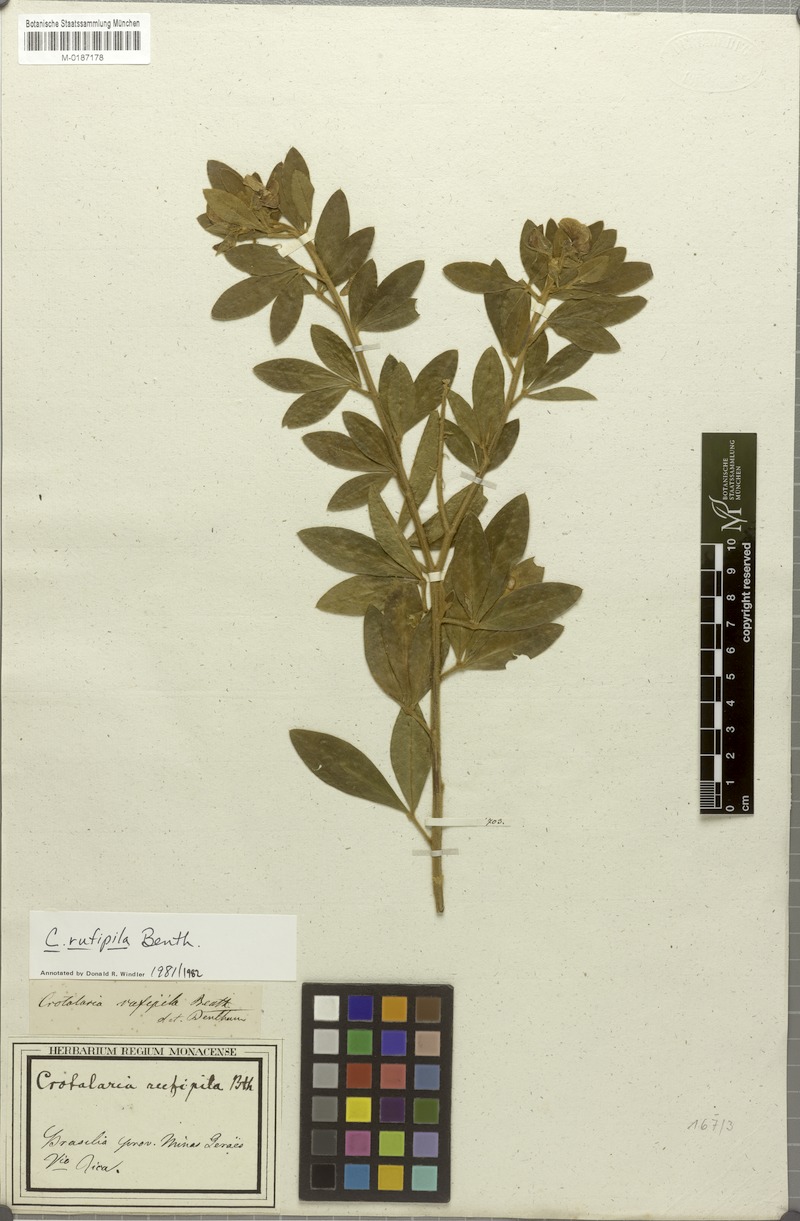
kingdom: Plantae
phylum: Tracheophyta
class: Magnoliopsida
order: Fabales
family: Fabaceae
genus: Crotalaria
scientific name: Crotalaria rufipila
